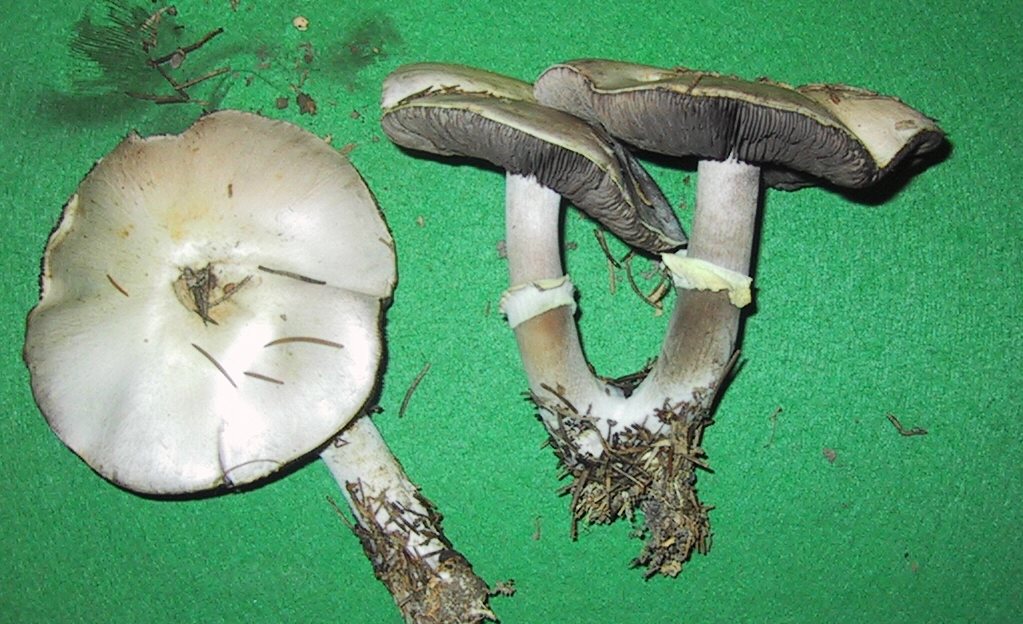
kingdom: Fungi
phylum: Basidiomycota
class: Agaricomycetes
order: Agaricales
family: Agaricaceae
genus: Agaricus
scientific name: Agaricus arvensis
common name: ager-champignon
